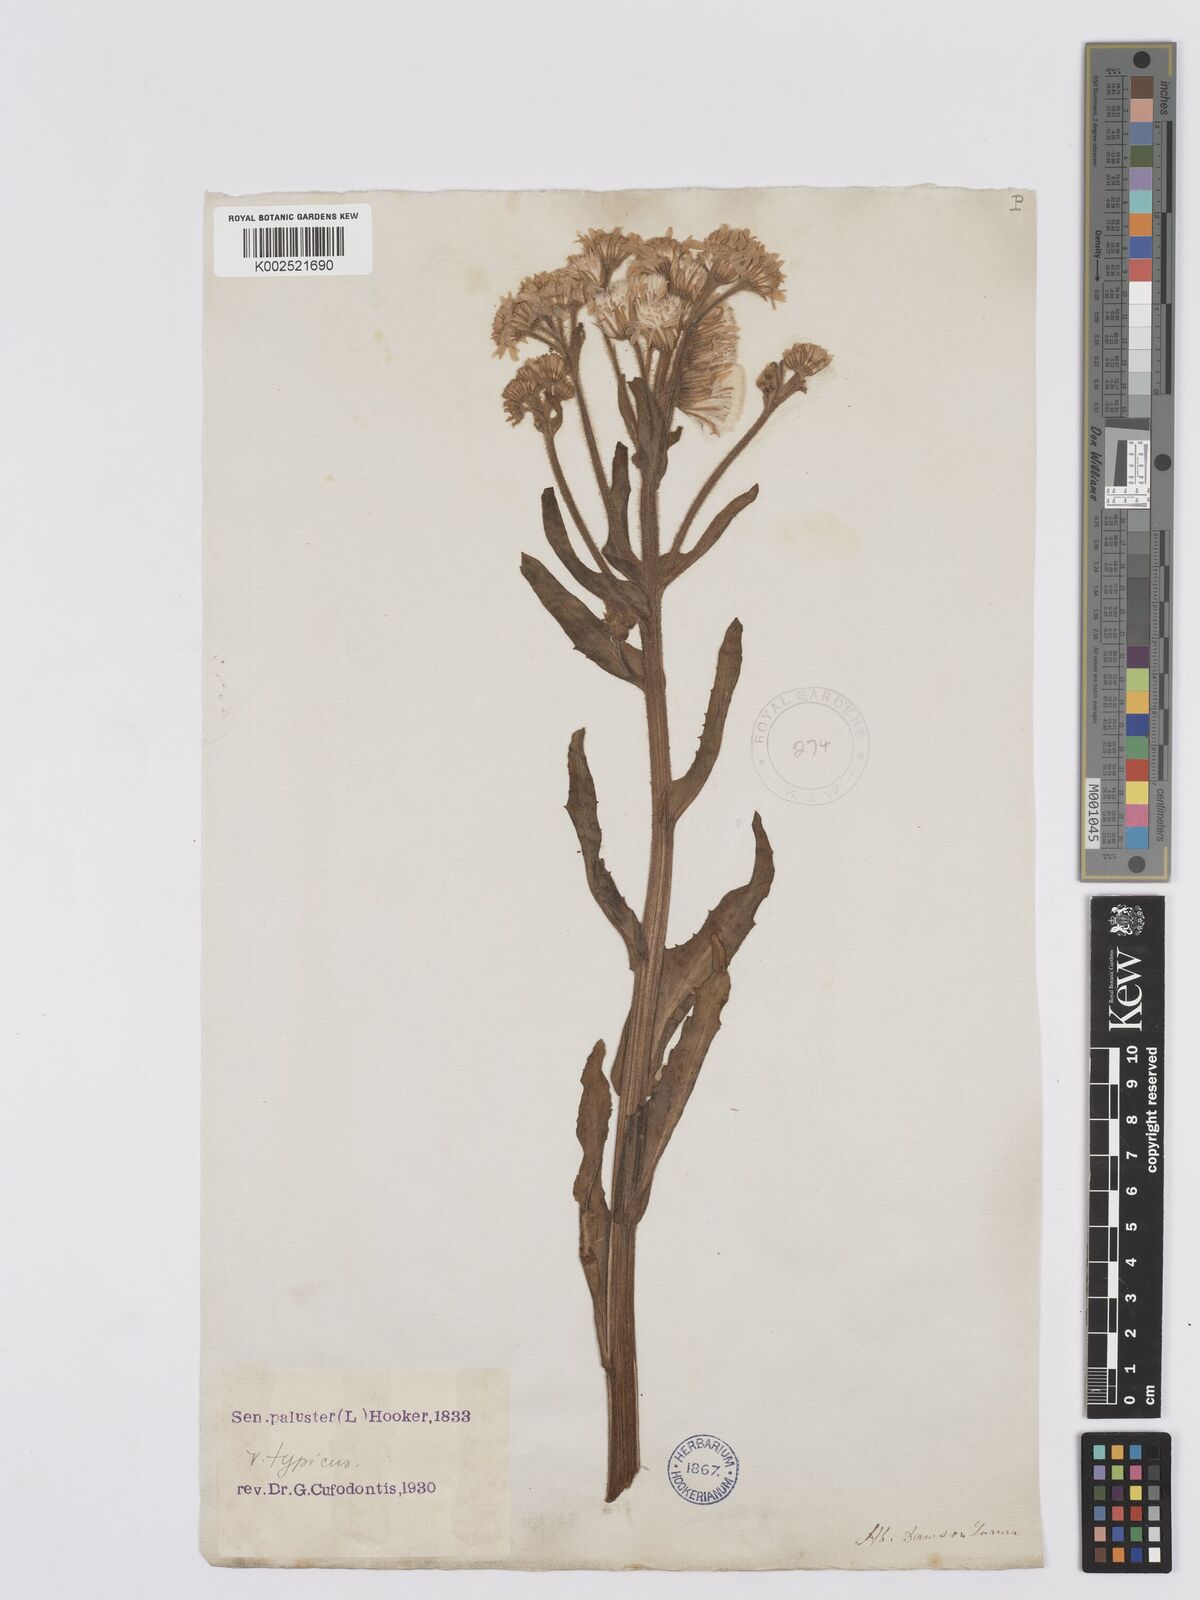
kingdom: Plantae
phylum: Tracheophyta
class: Magnoliopsida
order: Asterales
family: Asteraceae
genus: Tephroseris
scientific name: Tephroseris palustris
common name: Marsh fleawort
